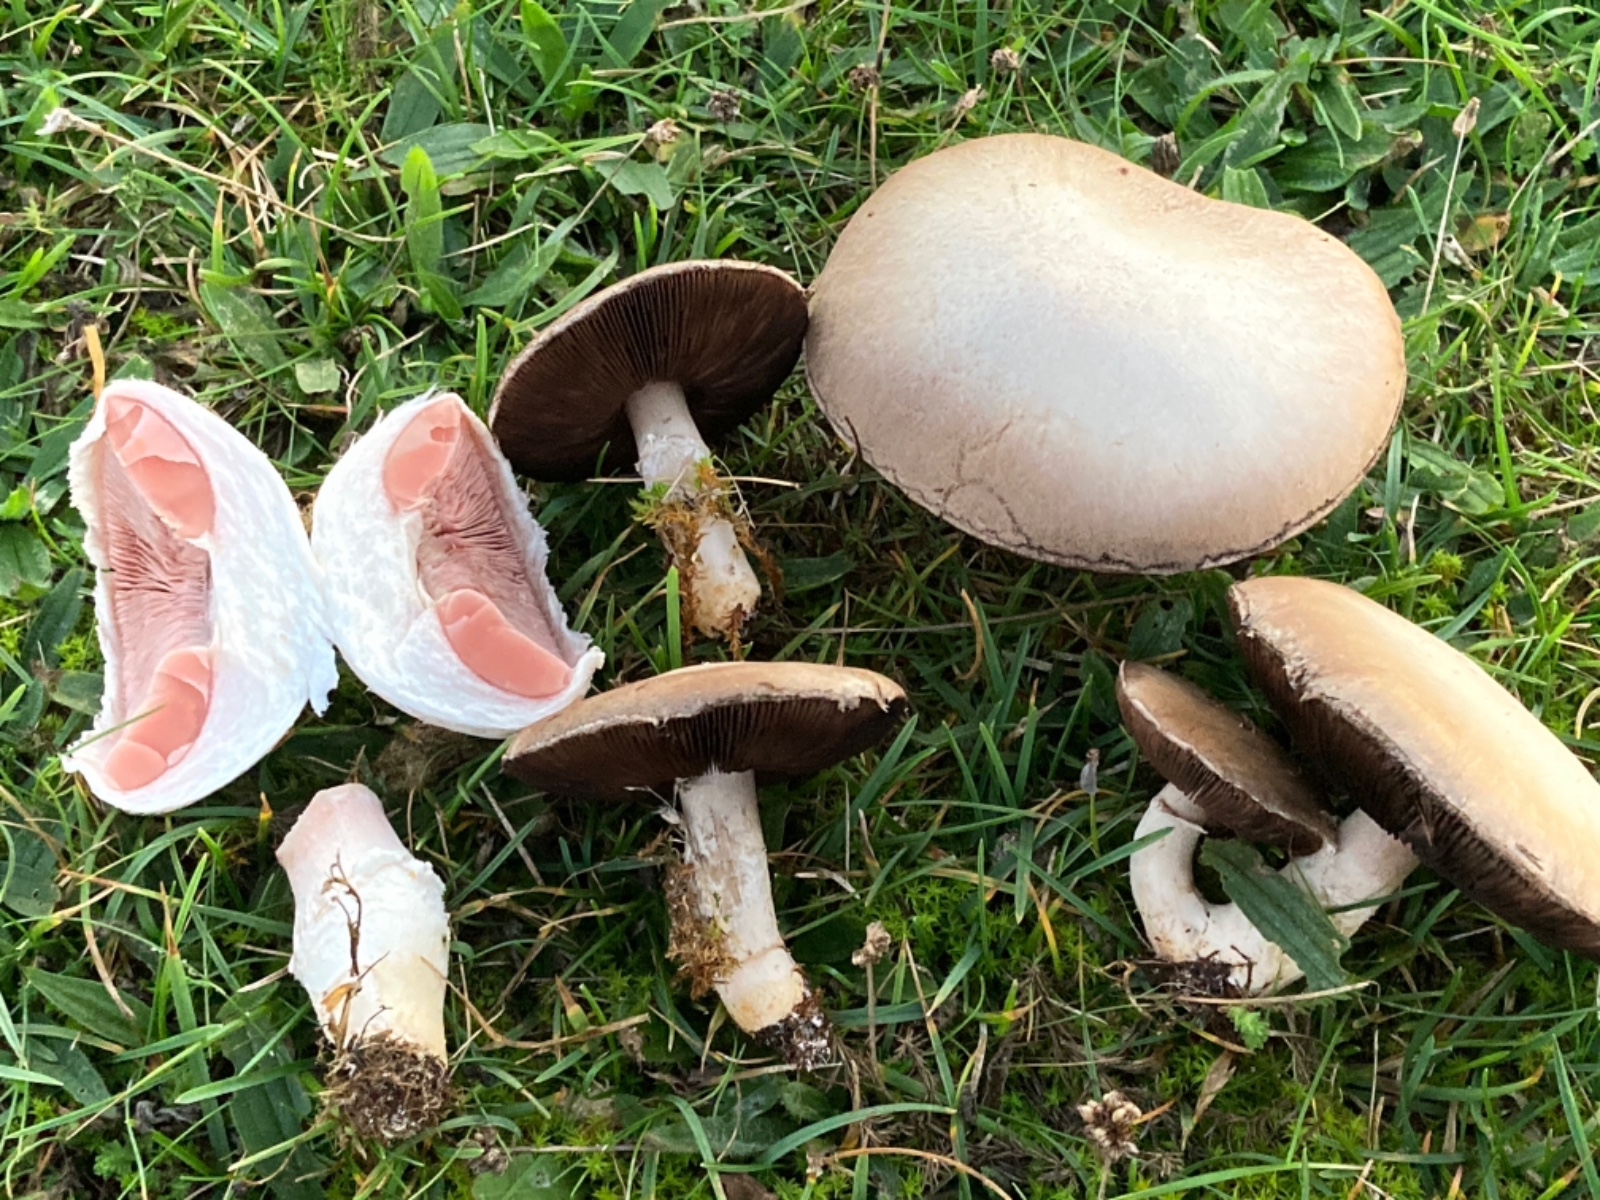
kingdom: Fungi
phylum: Basidiomycota
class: Agaricomycetes
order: Agaricales
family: Agaricaceae
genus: Agaricus
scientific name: Agaricus bitorquis
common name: vej-champignon
